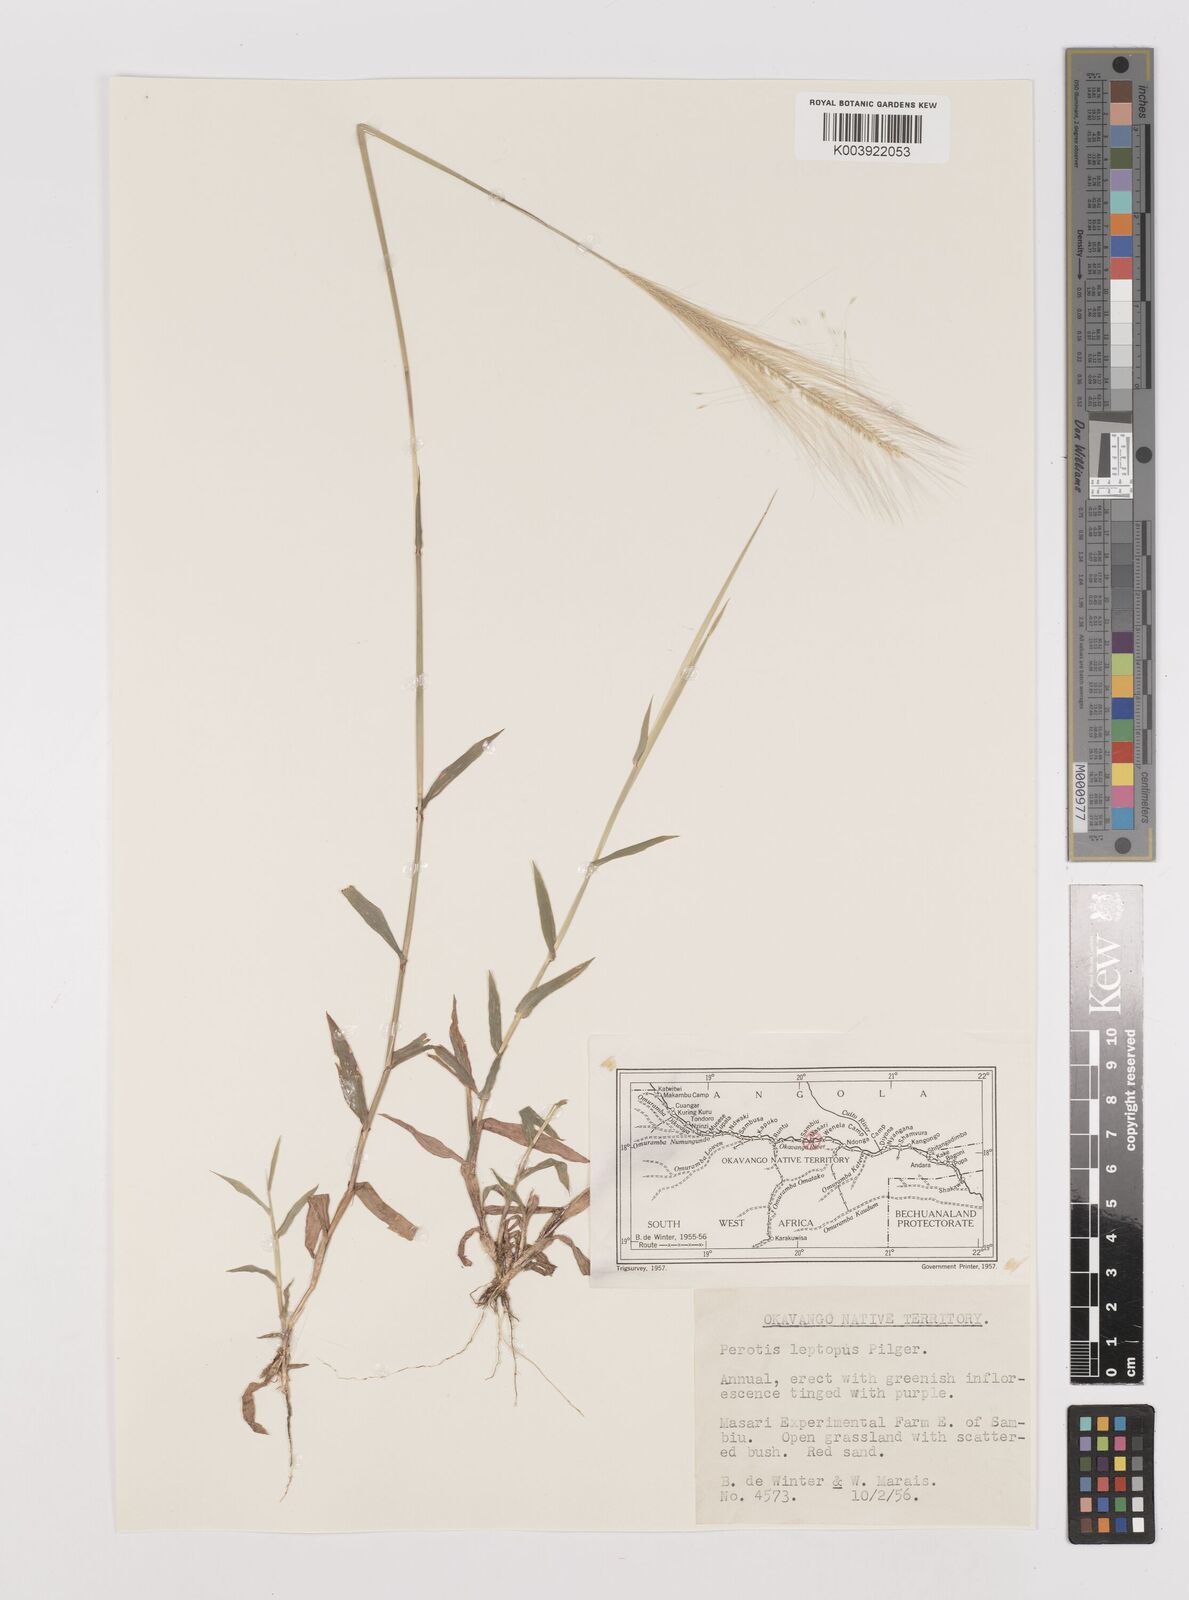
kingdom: Plantae
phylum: Tracheophyta
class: Liliopsida
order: Poales
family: Poaceae
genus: Perotis
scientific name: Perotis leptopus
